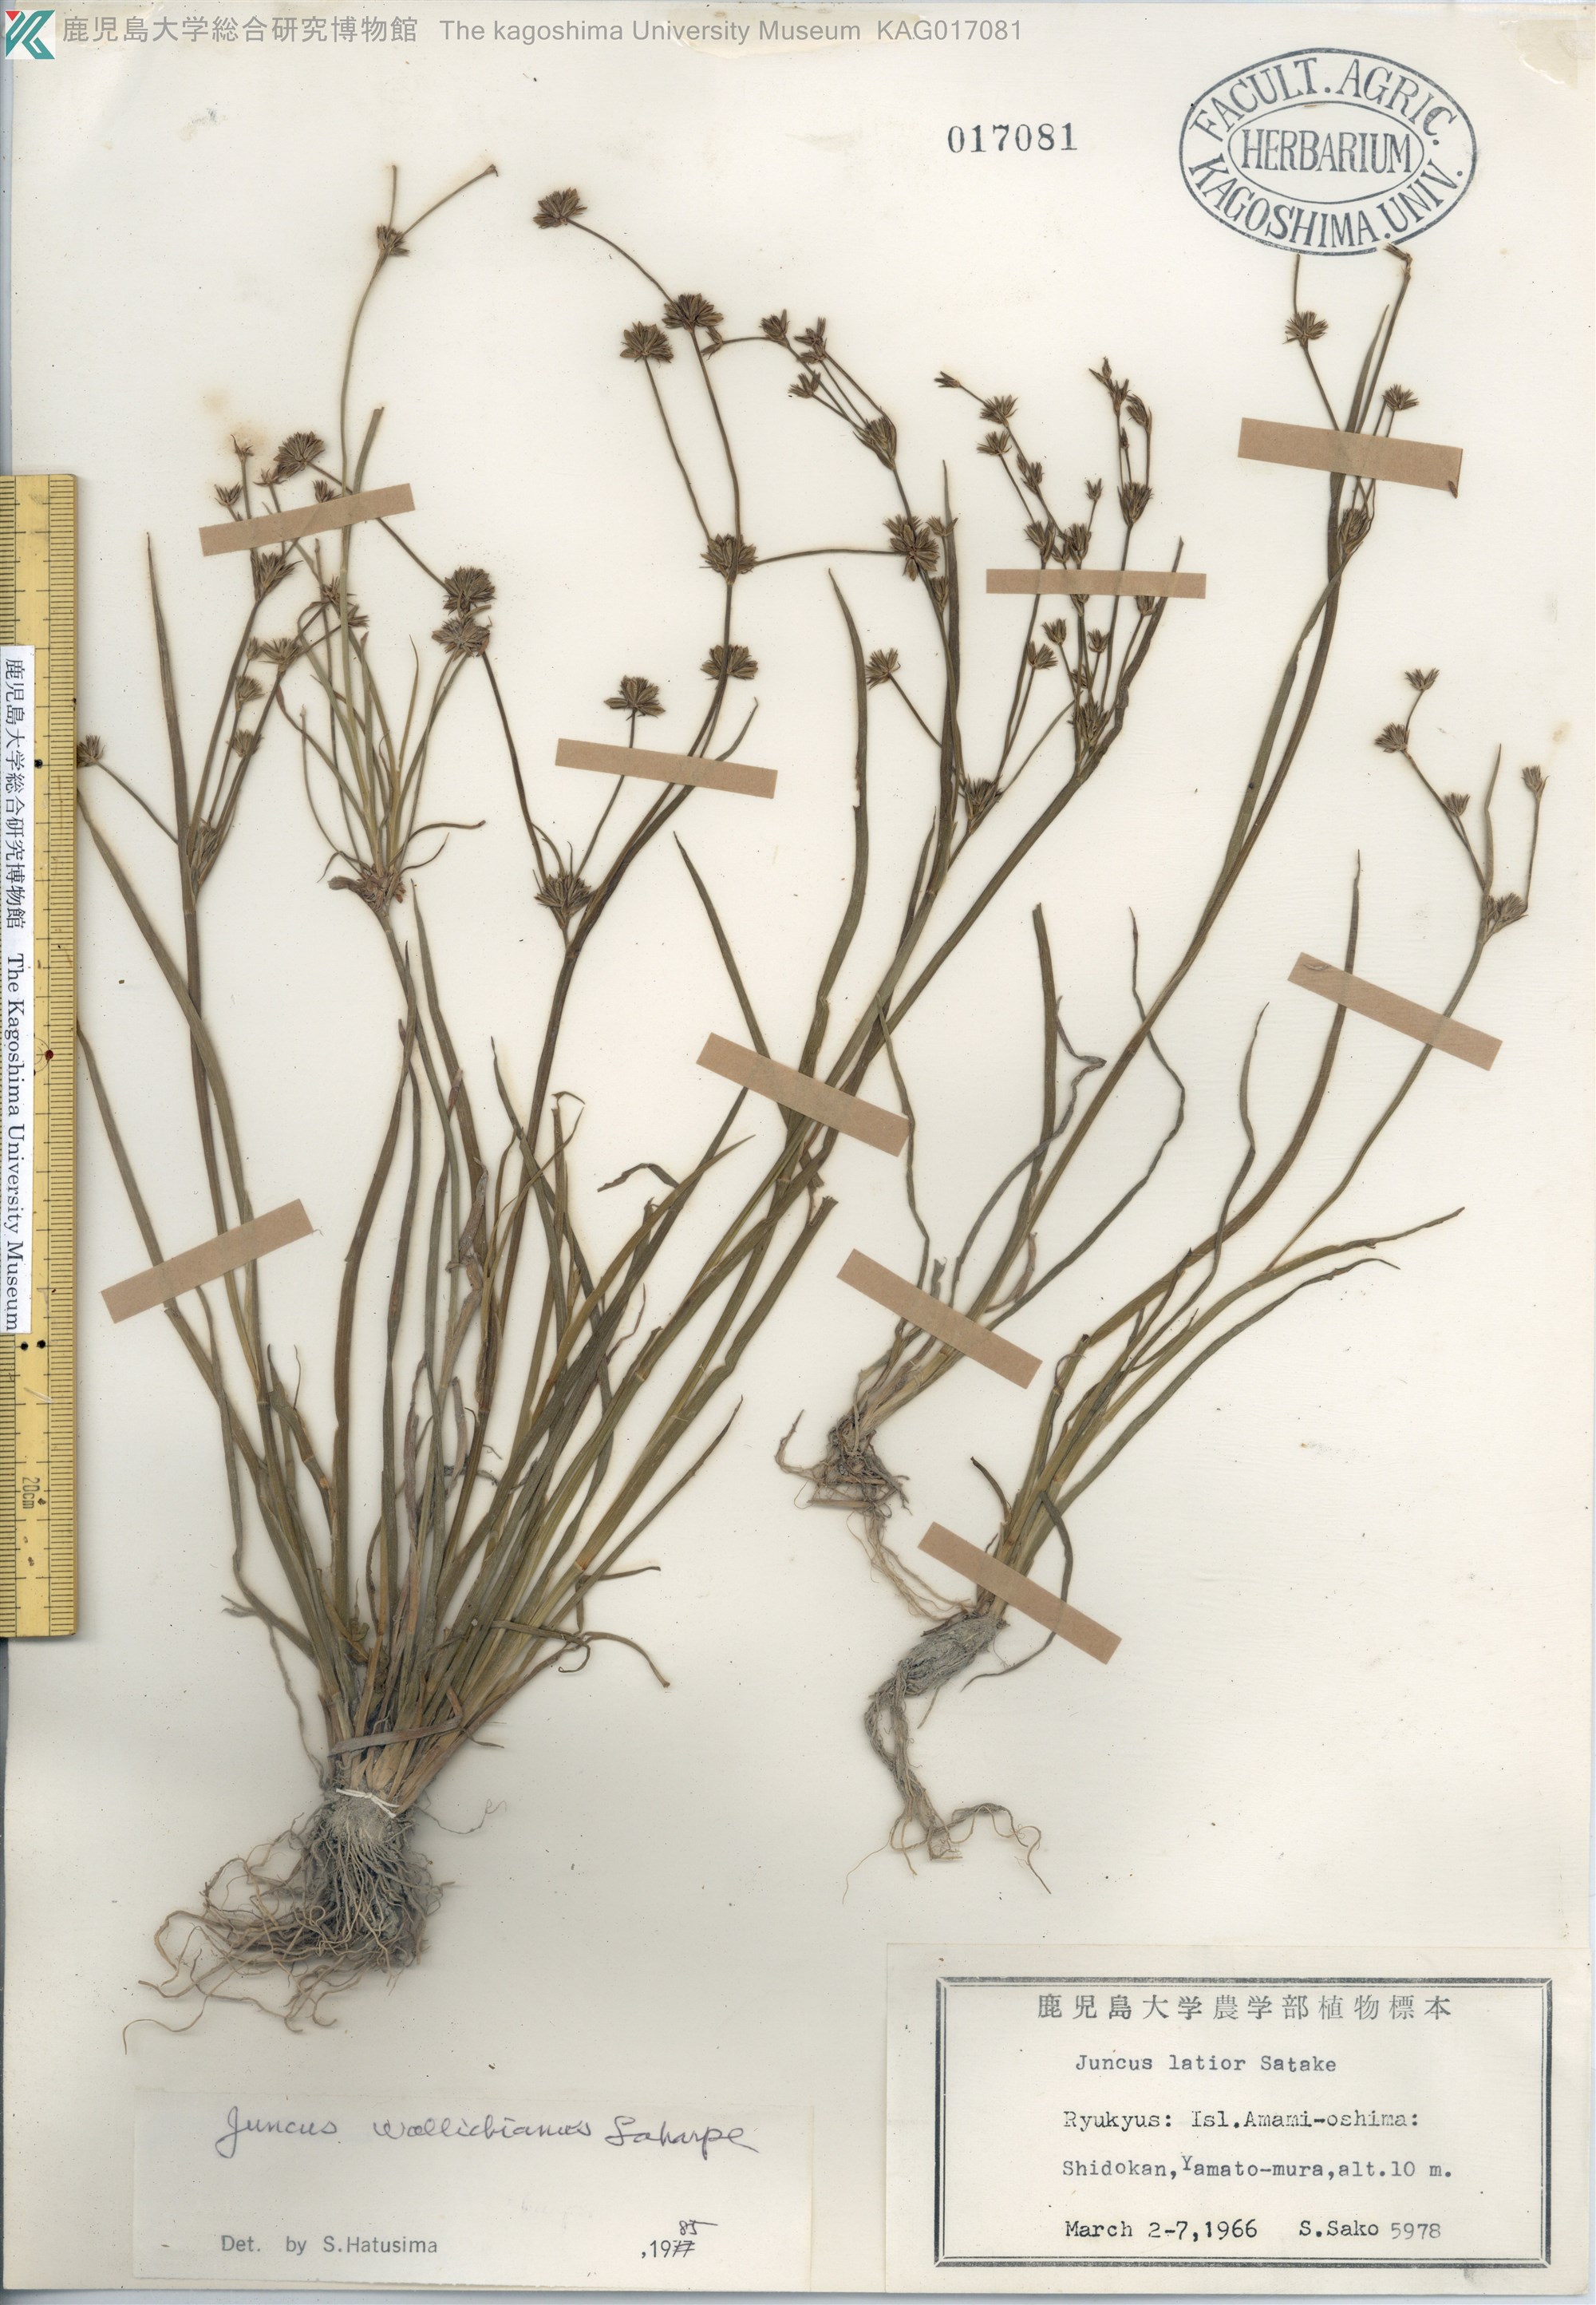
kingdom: Plantae
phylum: Tracheophyta
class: Liliopsida
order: Poales
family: Juncaceae
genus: Juncus
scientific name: Juncus prismatocarpus
